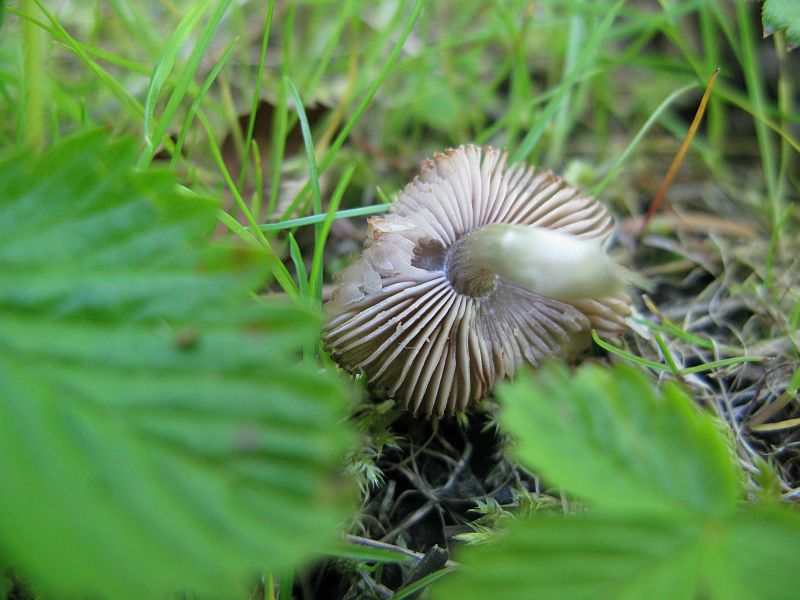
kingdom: Fungi
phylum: Basidiomycota
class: Agaricomycetes
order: Agaricales
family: Pluteaceae
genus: Pluteus
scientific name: Pluteus
